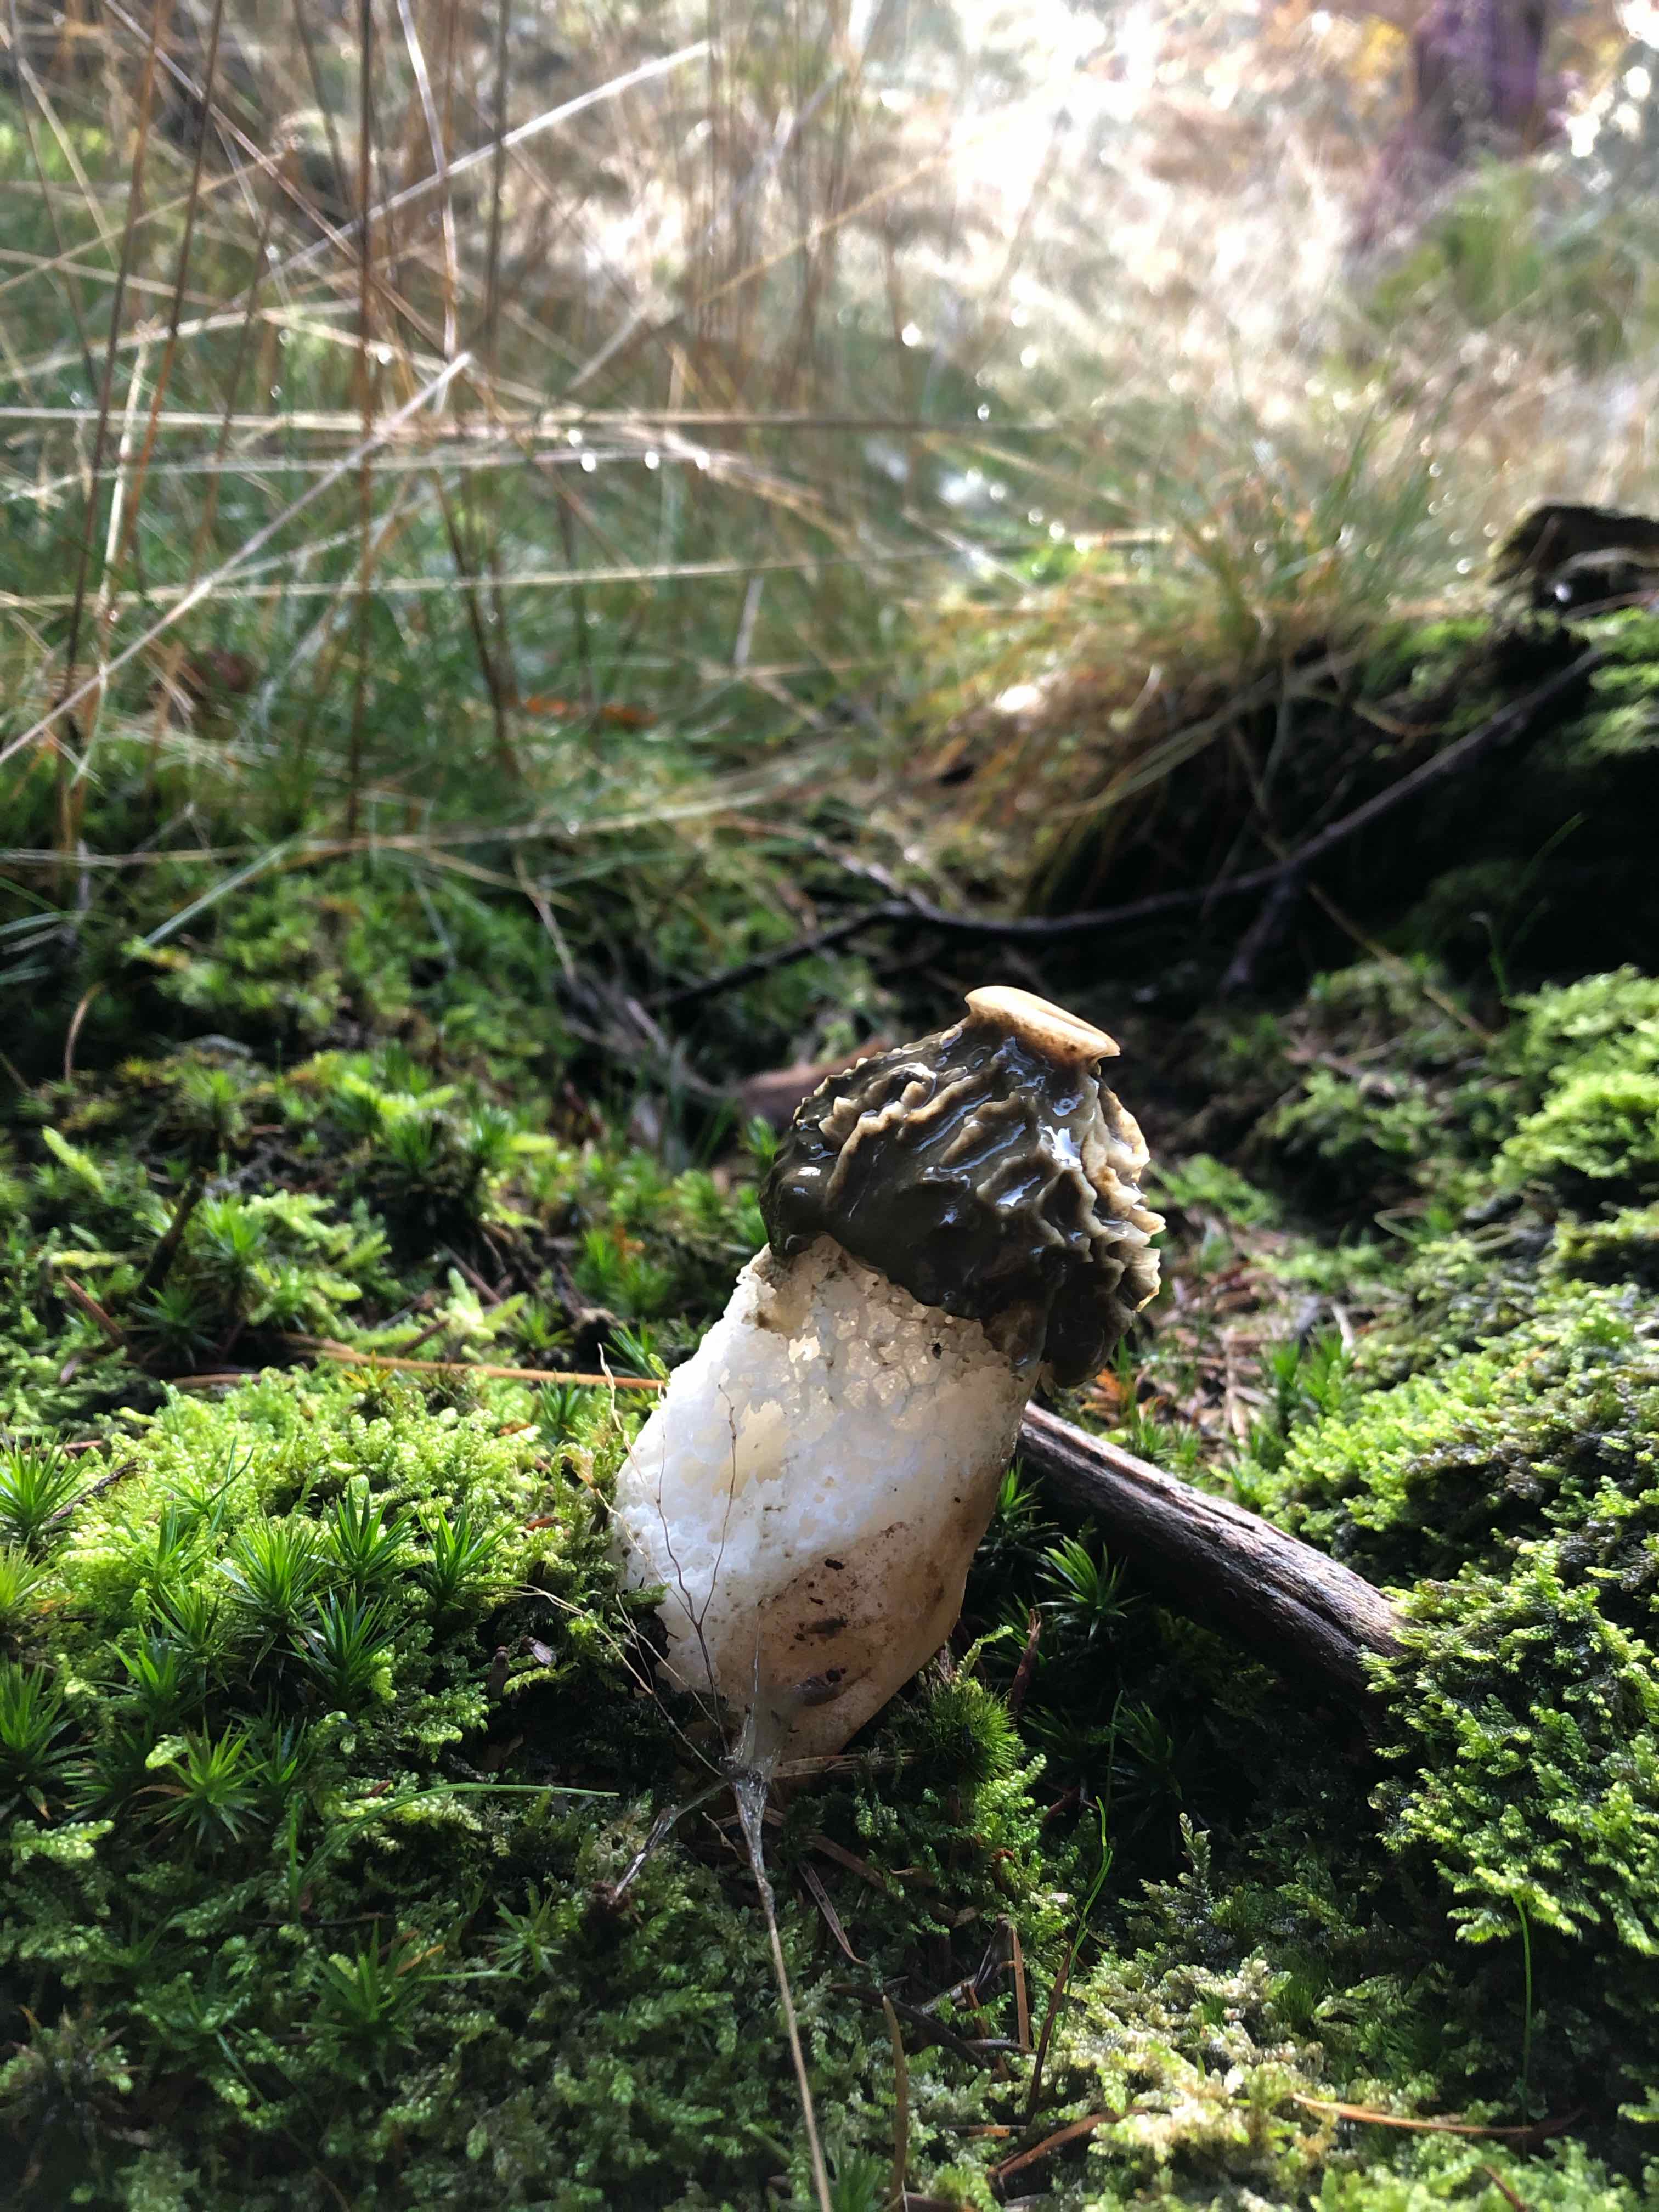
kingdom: Fungi
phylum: Basidiomycota
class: Agaricomycetes
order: Phallales
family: Phallaceae
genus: Phallus
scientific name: Phallus impudicus
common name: almindelig stinksvamp
